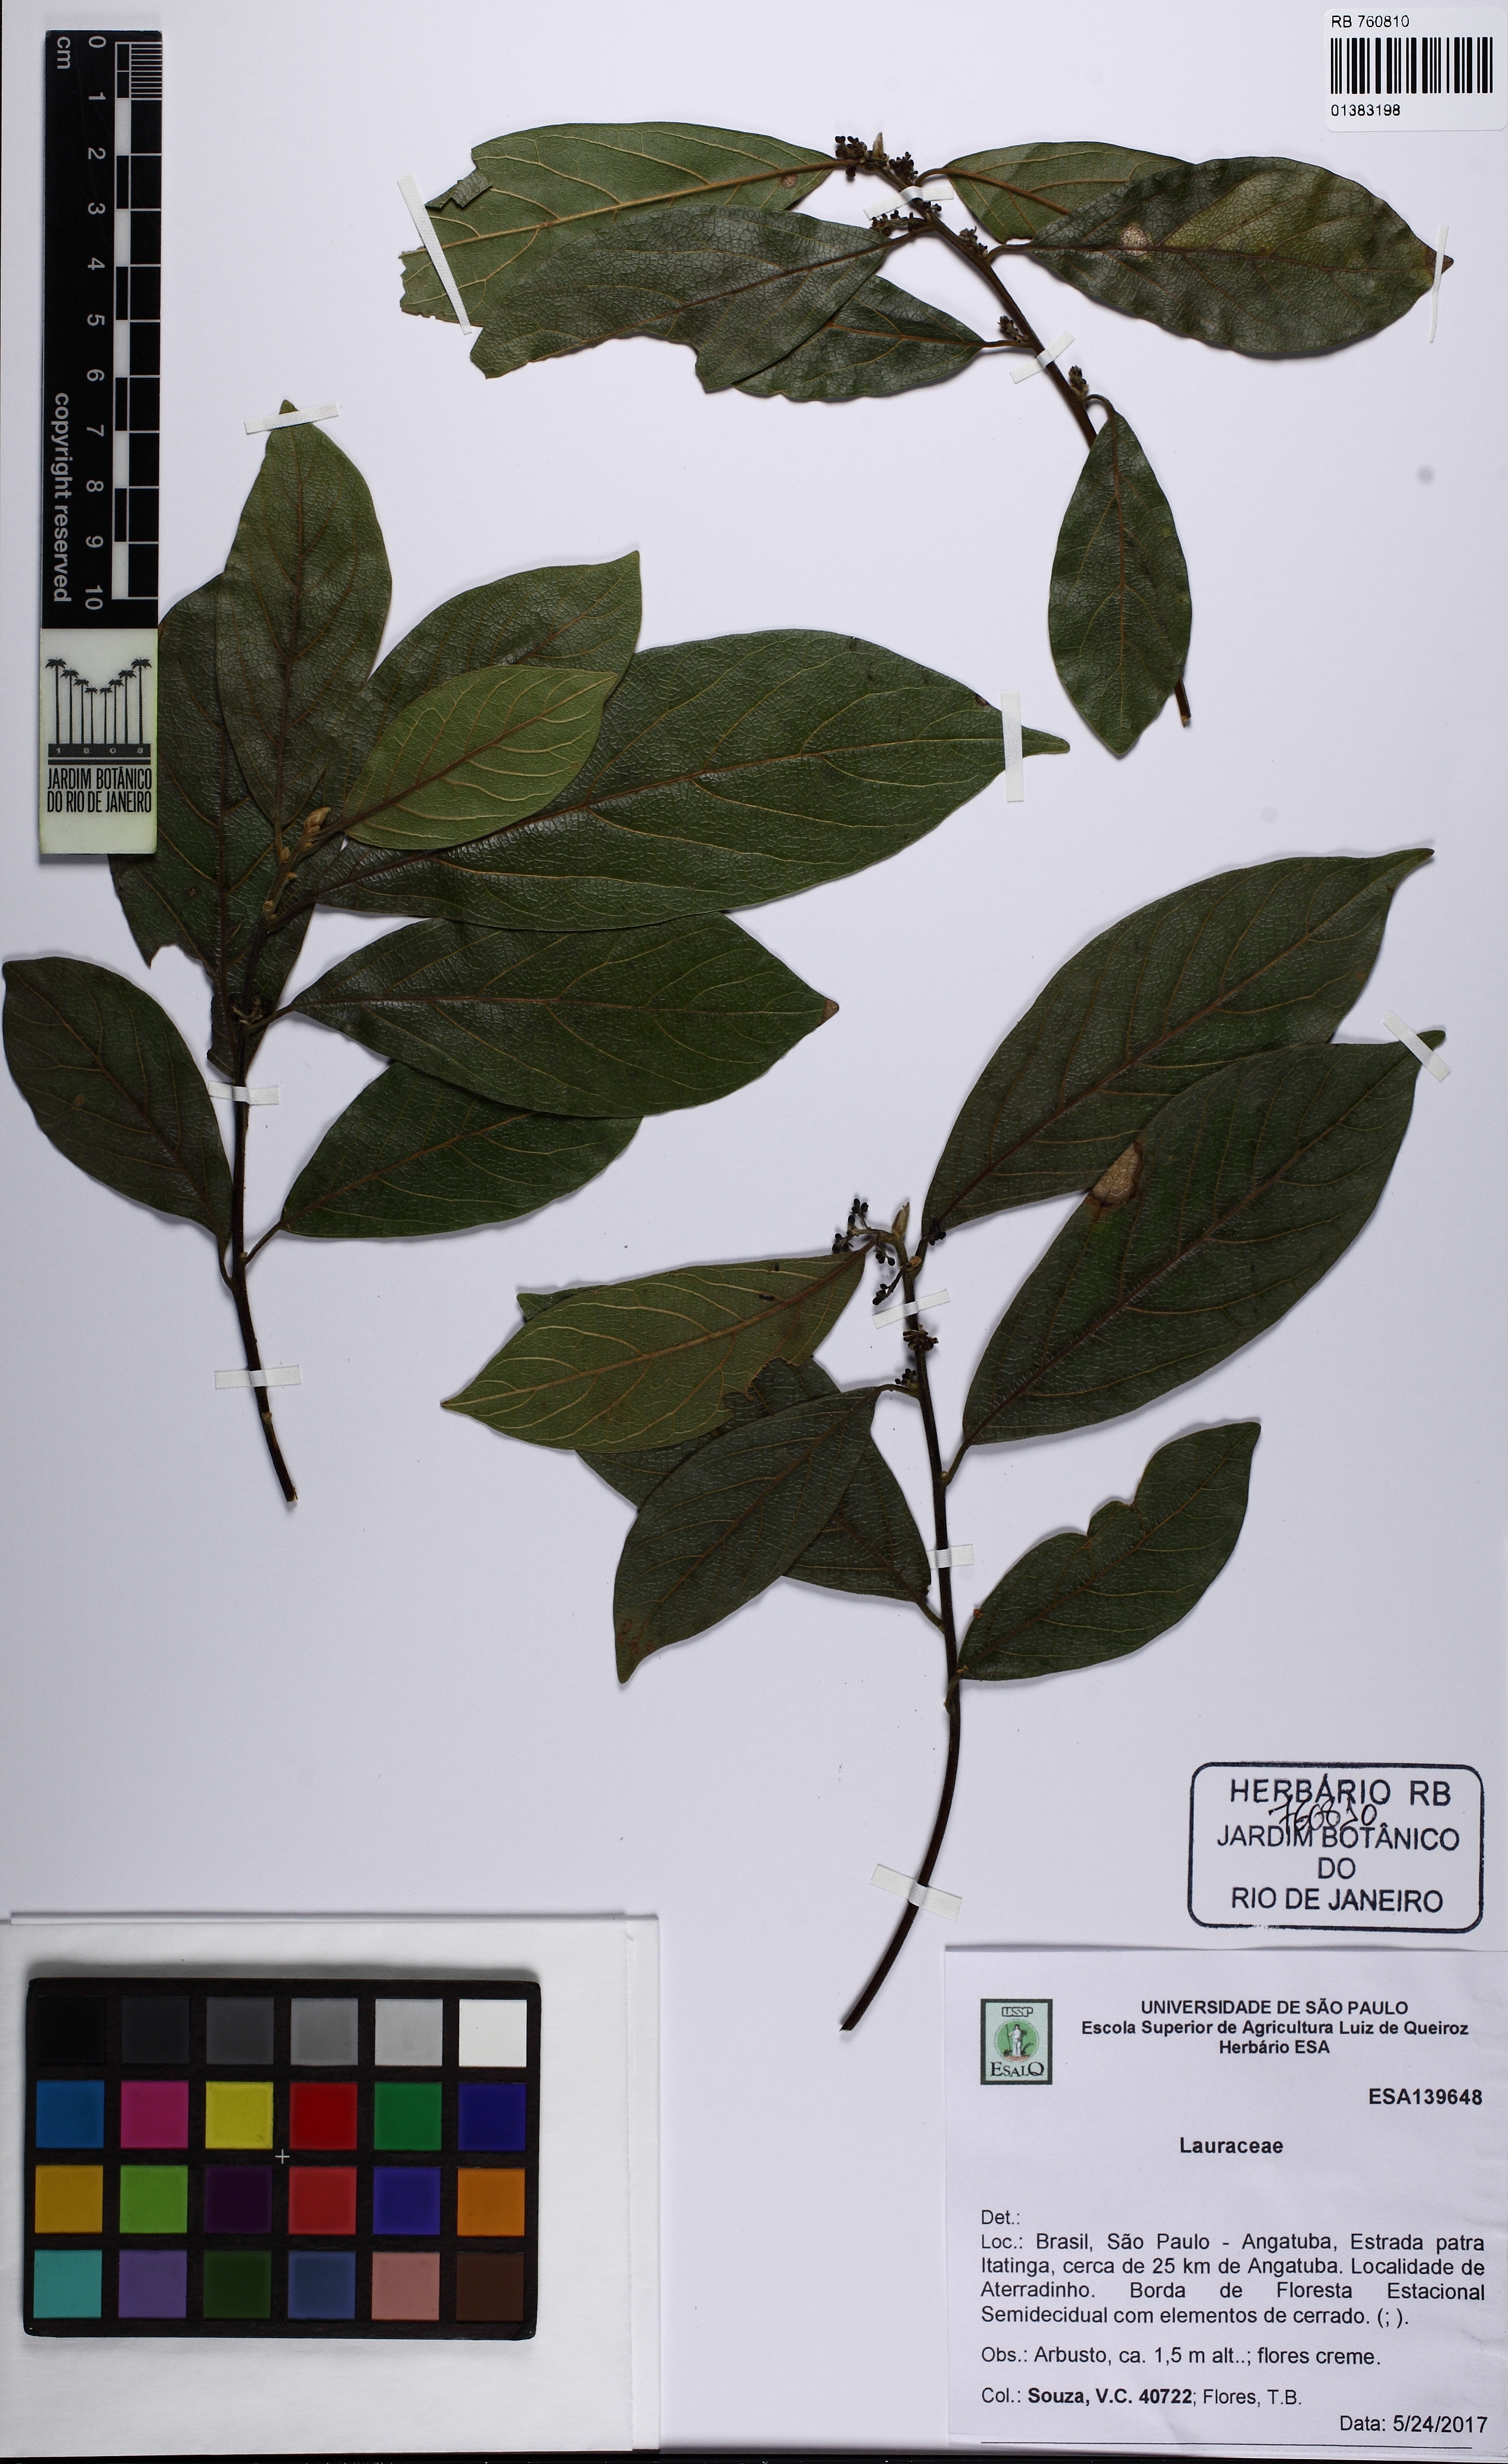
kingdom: Plantae
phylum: Tracheophyta
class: Magnoliopsida
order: Laurales
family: Lauraceae
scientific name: Lauraceae
